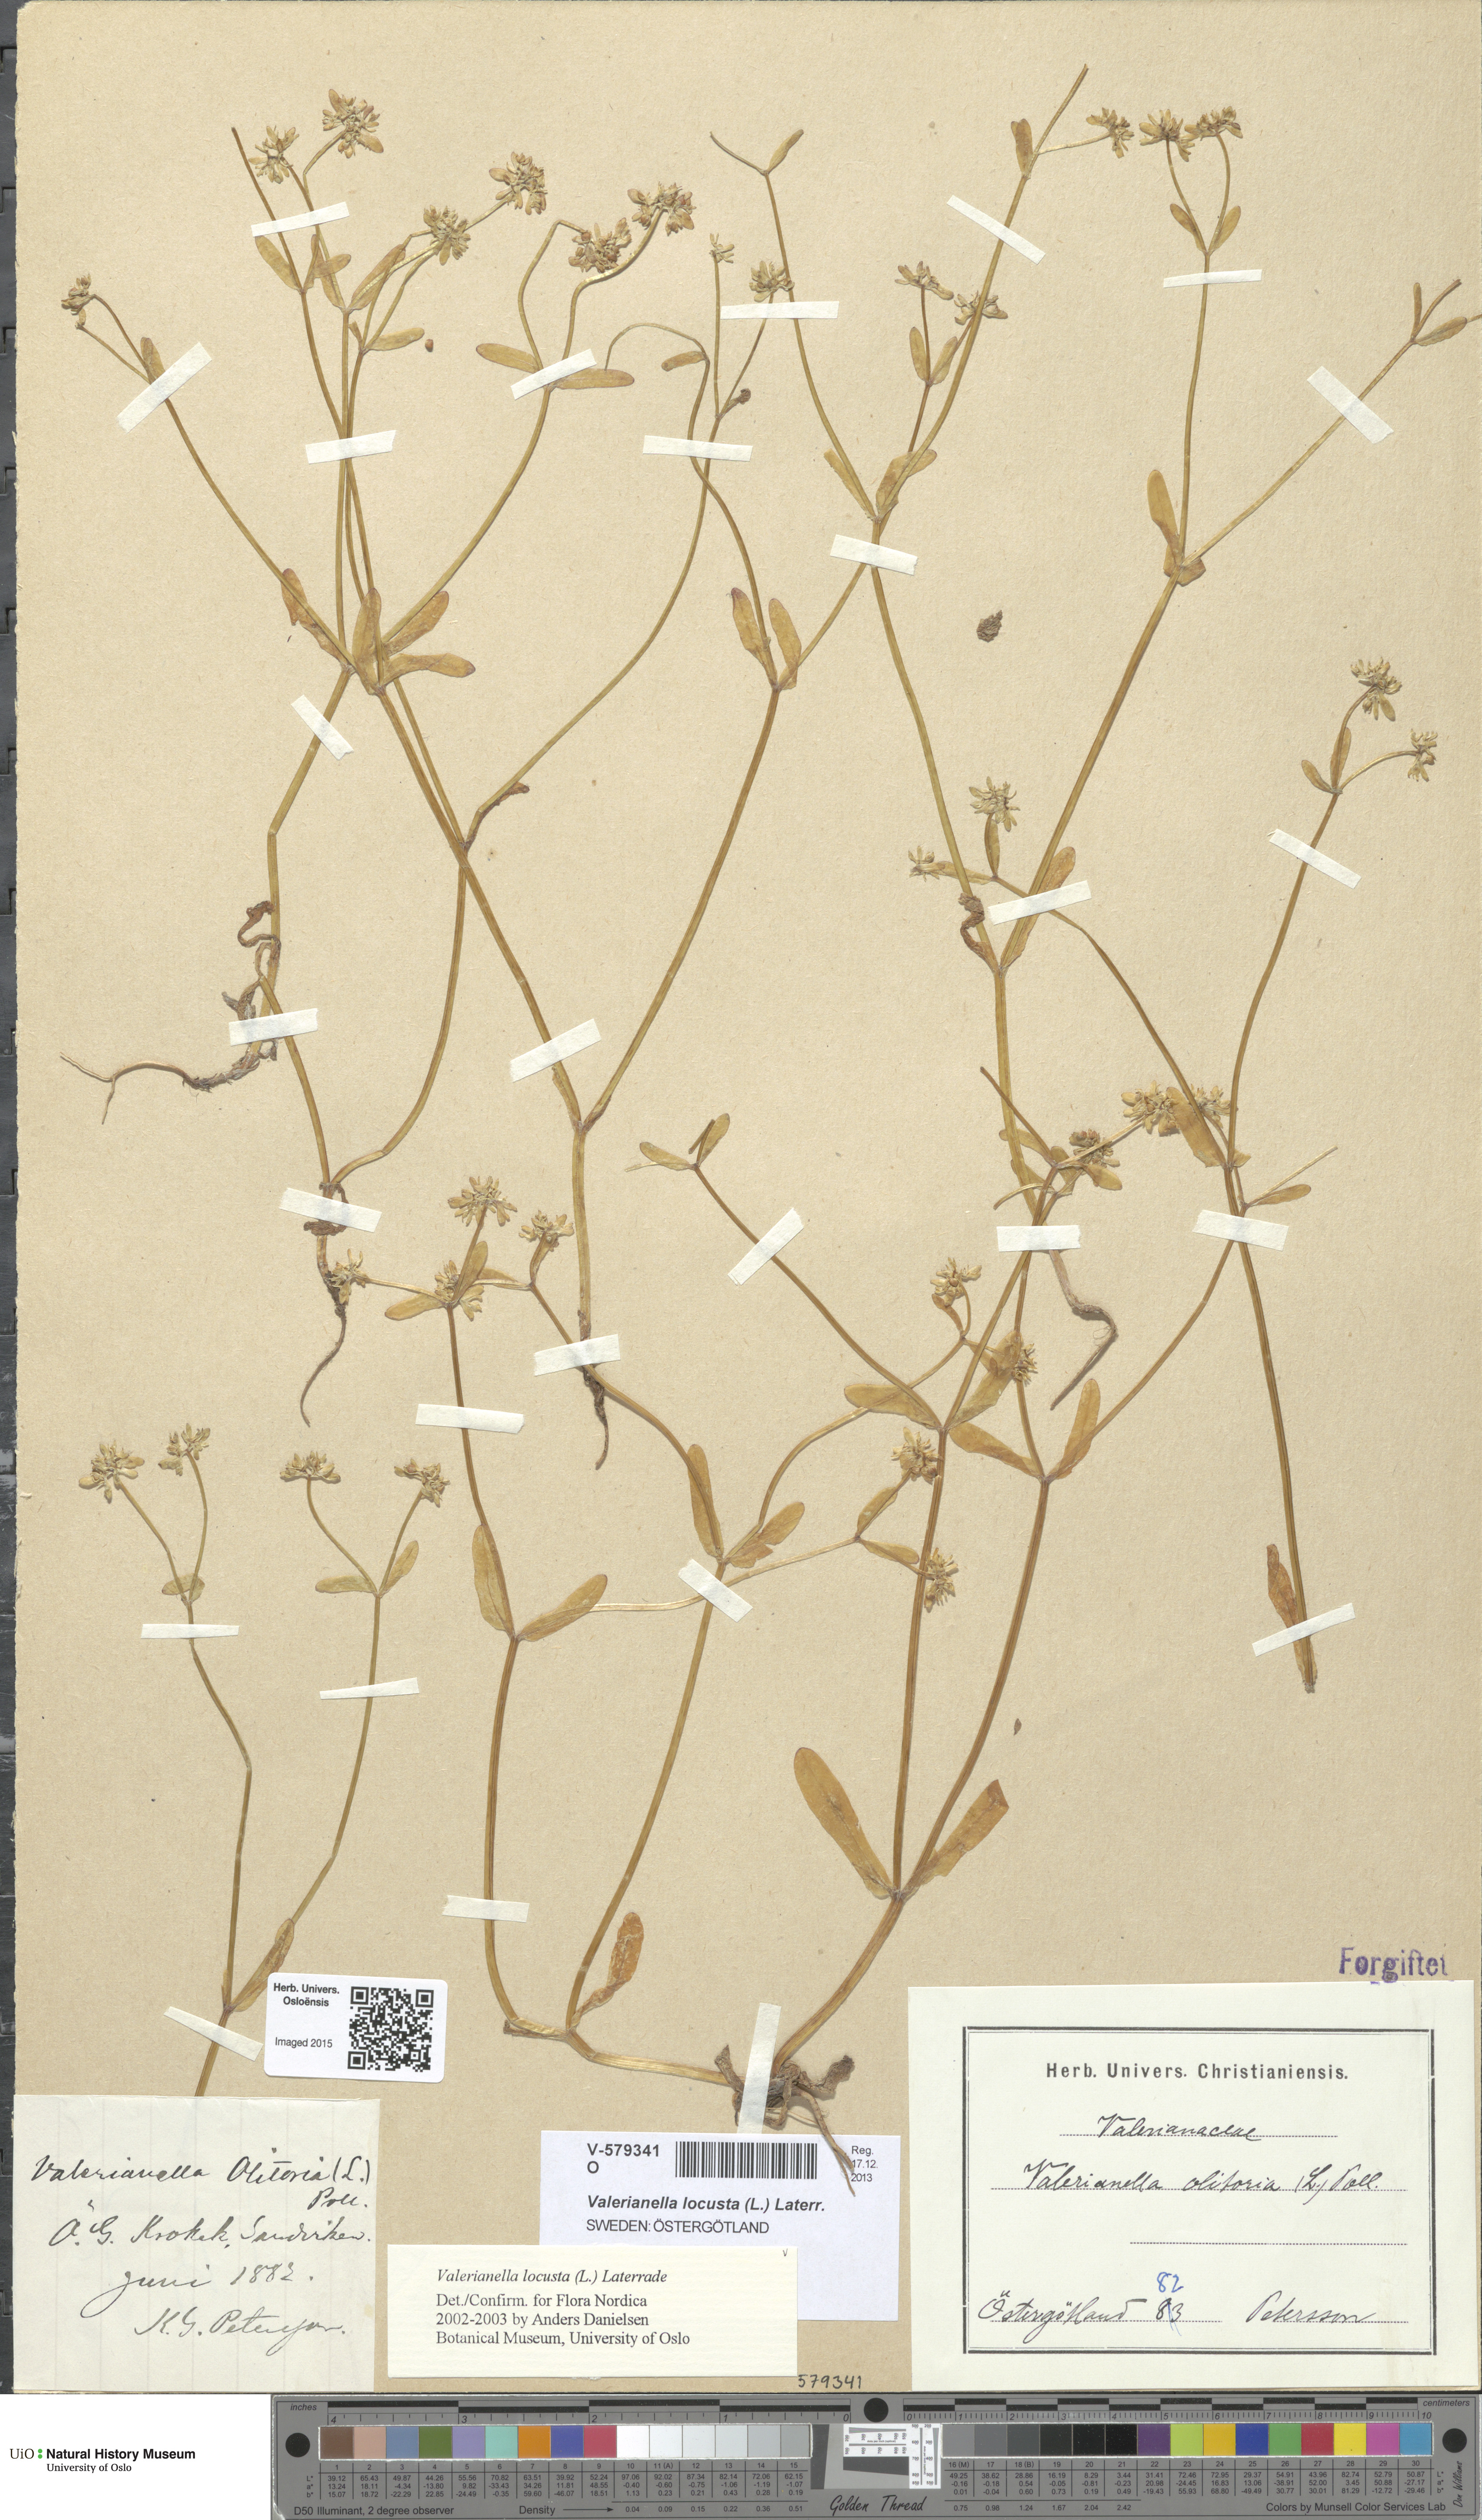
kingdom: Plantae
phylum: Tracheophyta
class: Magnoliopsida
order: Dipsacales
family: Caprifoliaceae
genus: Valerianella
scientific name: Valerianella locusta
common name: Common cornsalad
